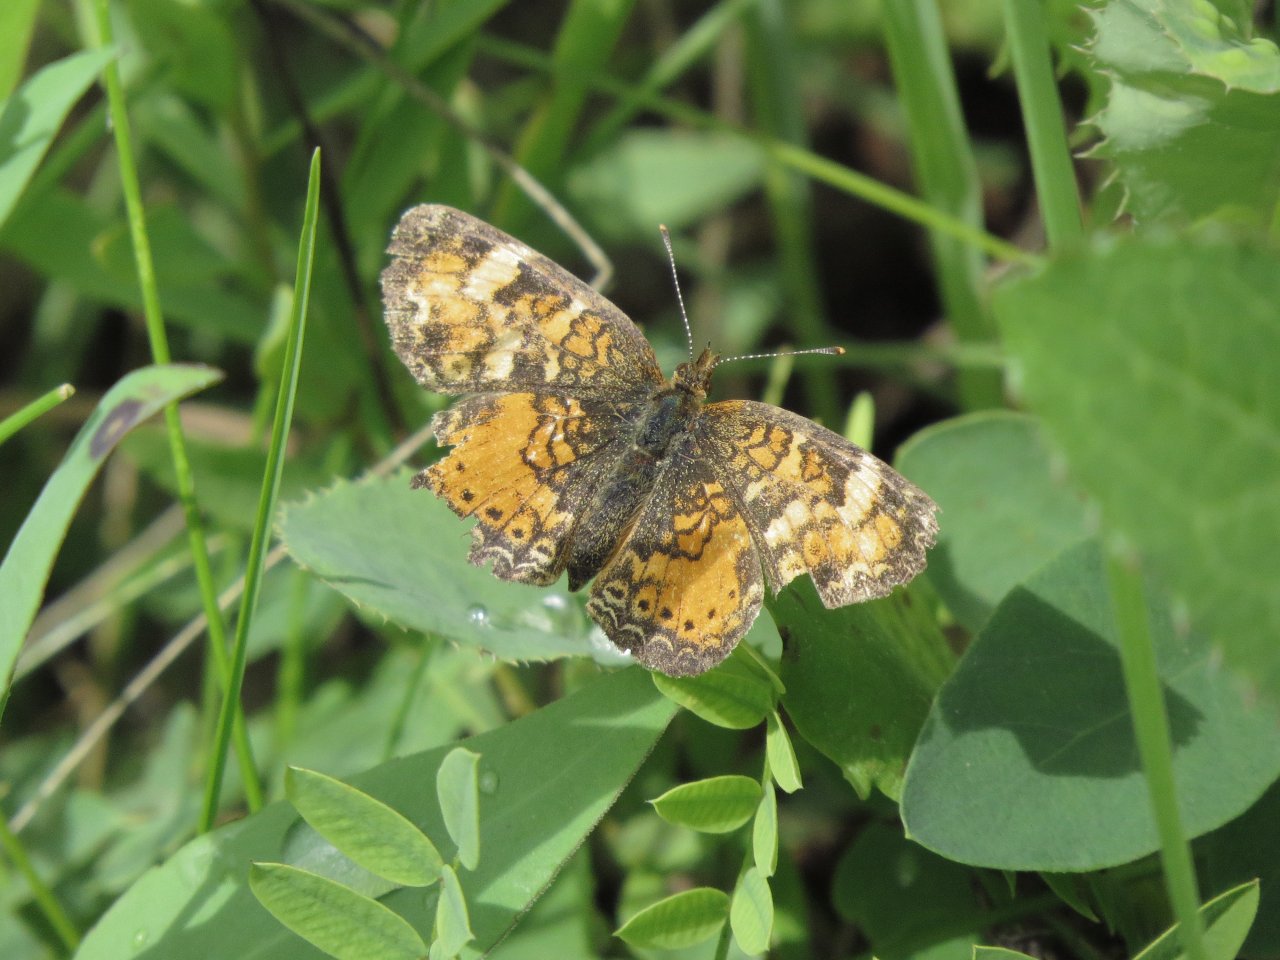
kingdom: Animalia
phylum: Arthropoda
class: Insecta
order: Lepidoptera
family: Nymphalidae
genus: Phyciodes
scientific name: Phyciodes tharos
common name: Northern Crescent
